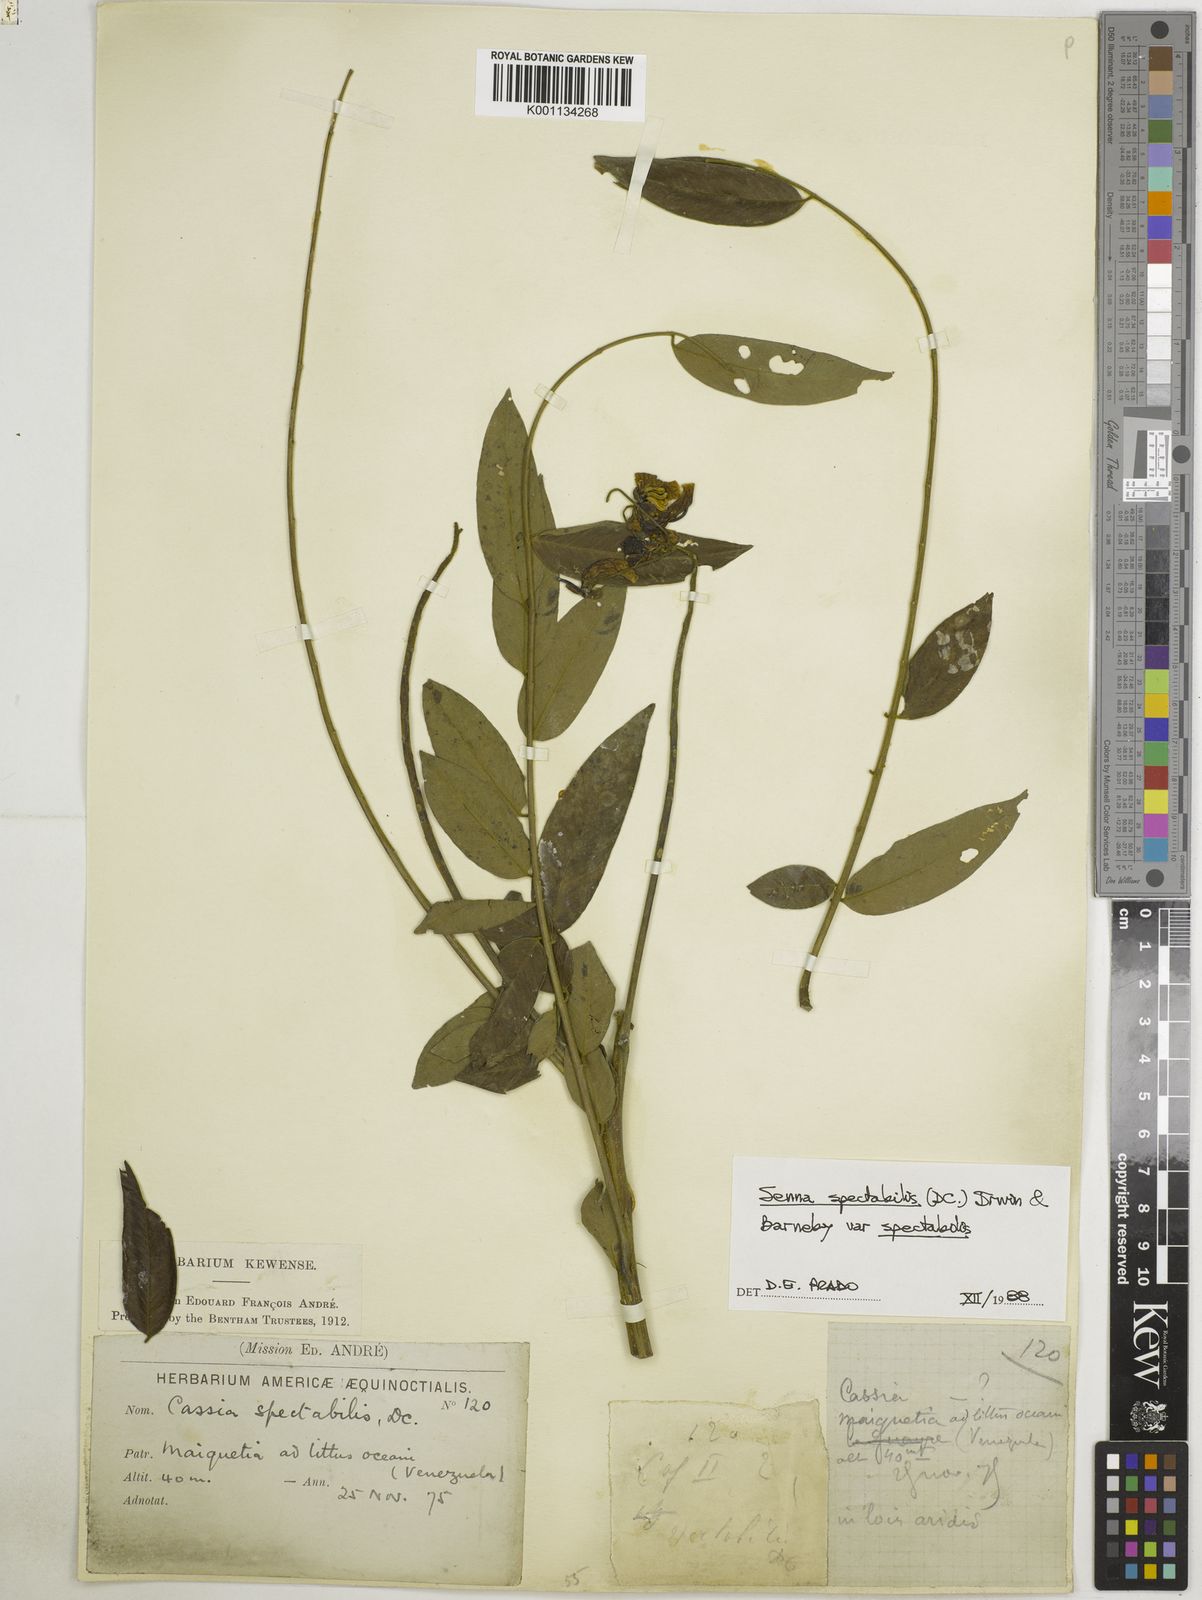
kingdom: Plantae
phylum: Tracheophyta
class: Magnoliopsida
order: Fabales
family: Fabaceae
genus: Senna
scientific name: Senna spectabilis
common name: Casia amarilla
